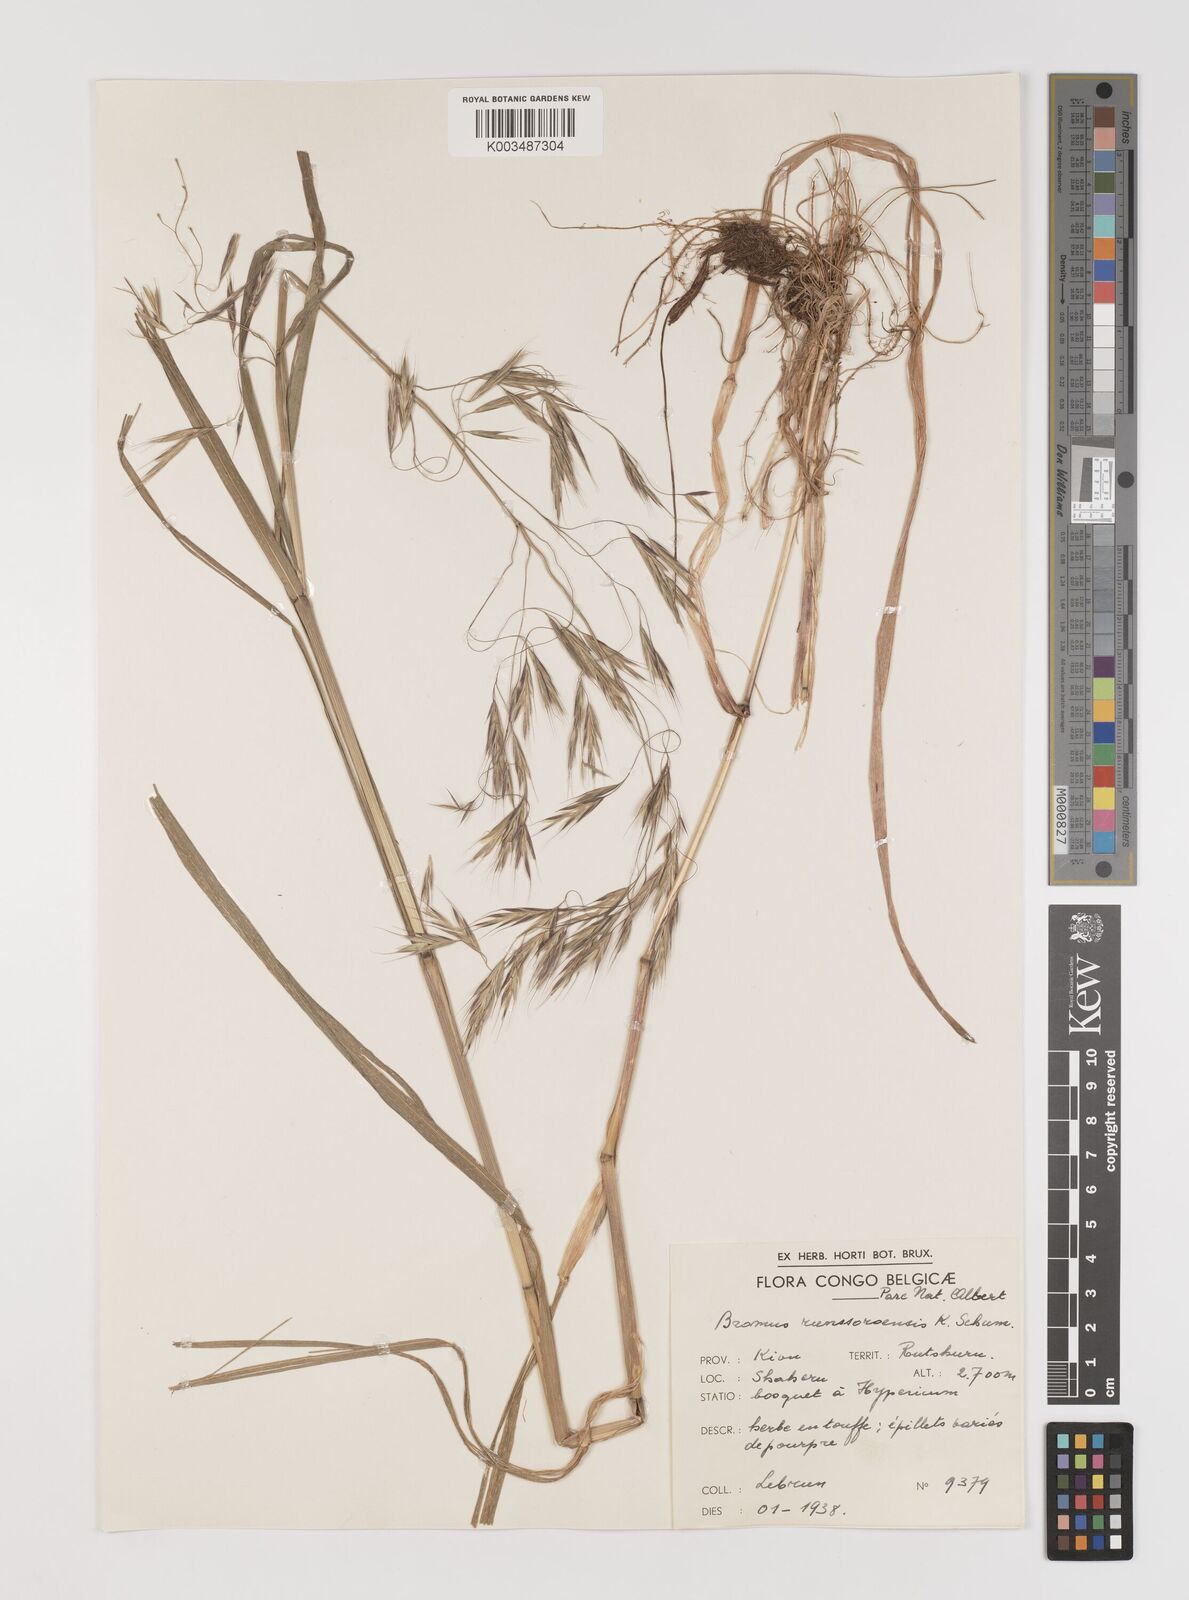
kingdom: Plantae
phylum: Tracheophyta
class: Liliopsida
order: Poales
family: Poaceae
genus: Bromus
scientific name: Bromus leptoclados
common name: Mountain bromegrass
